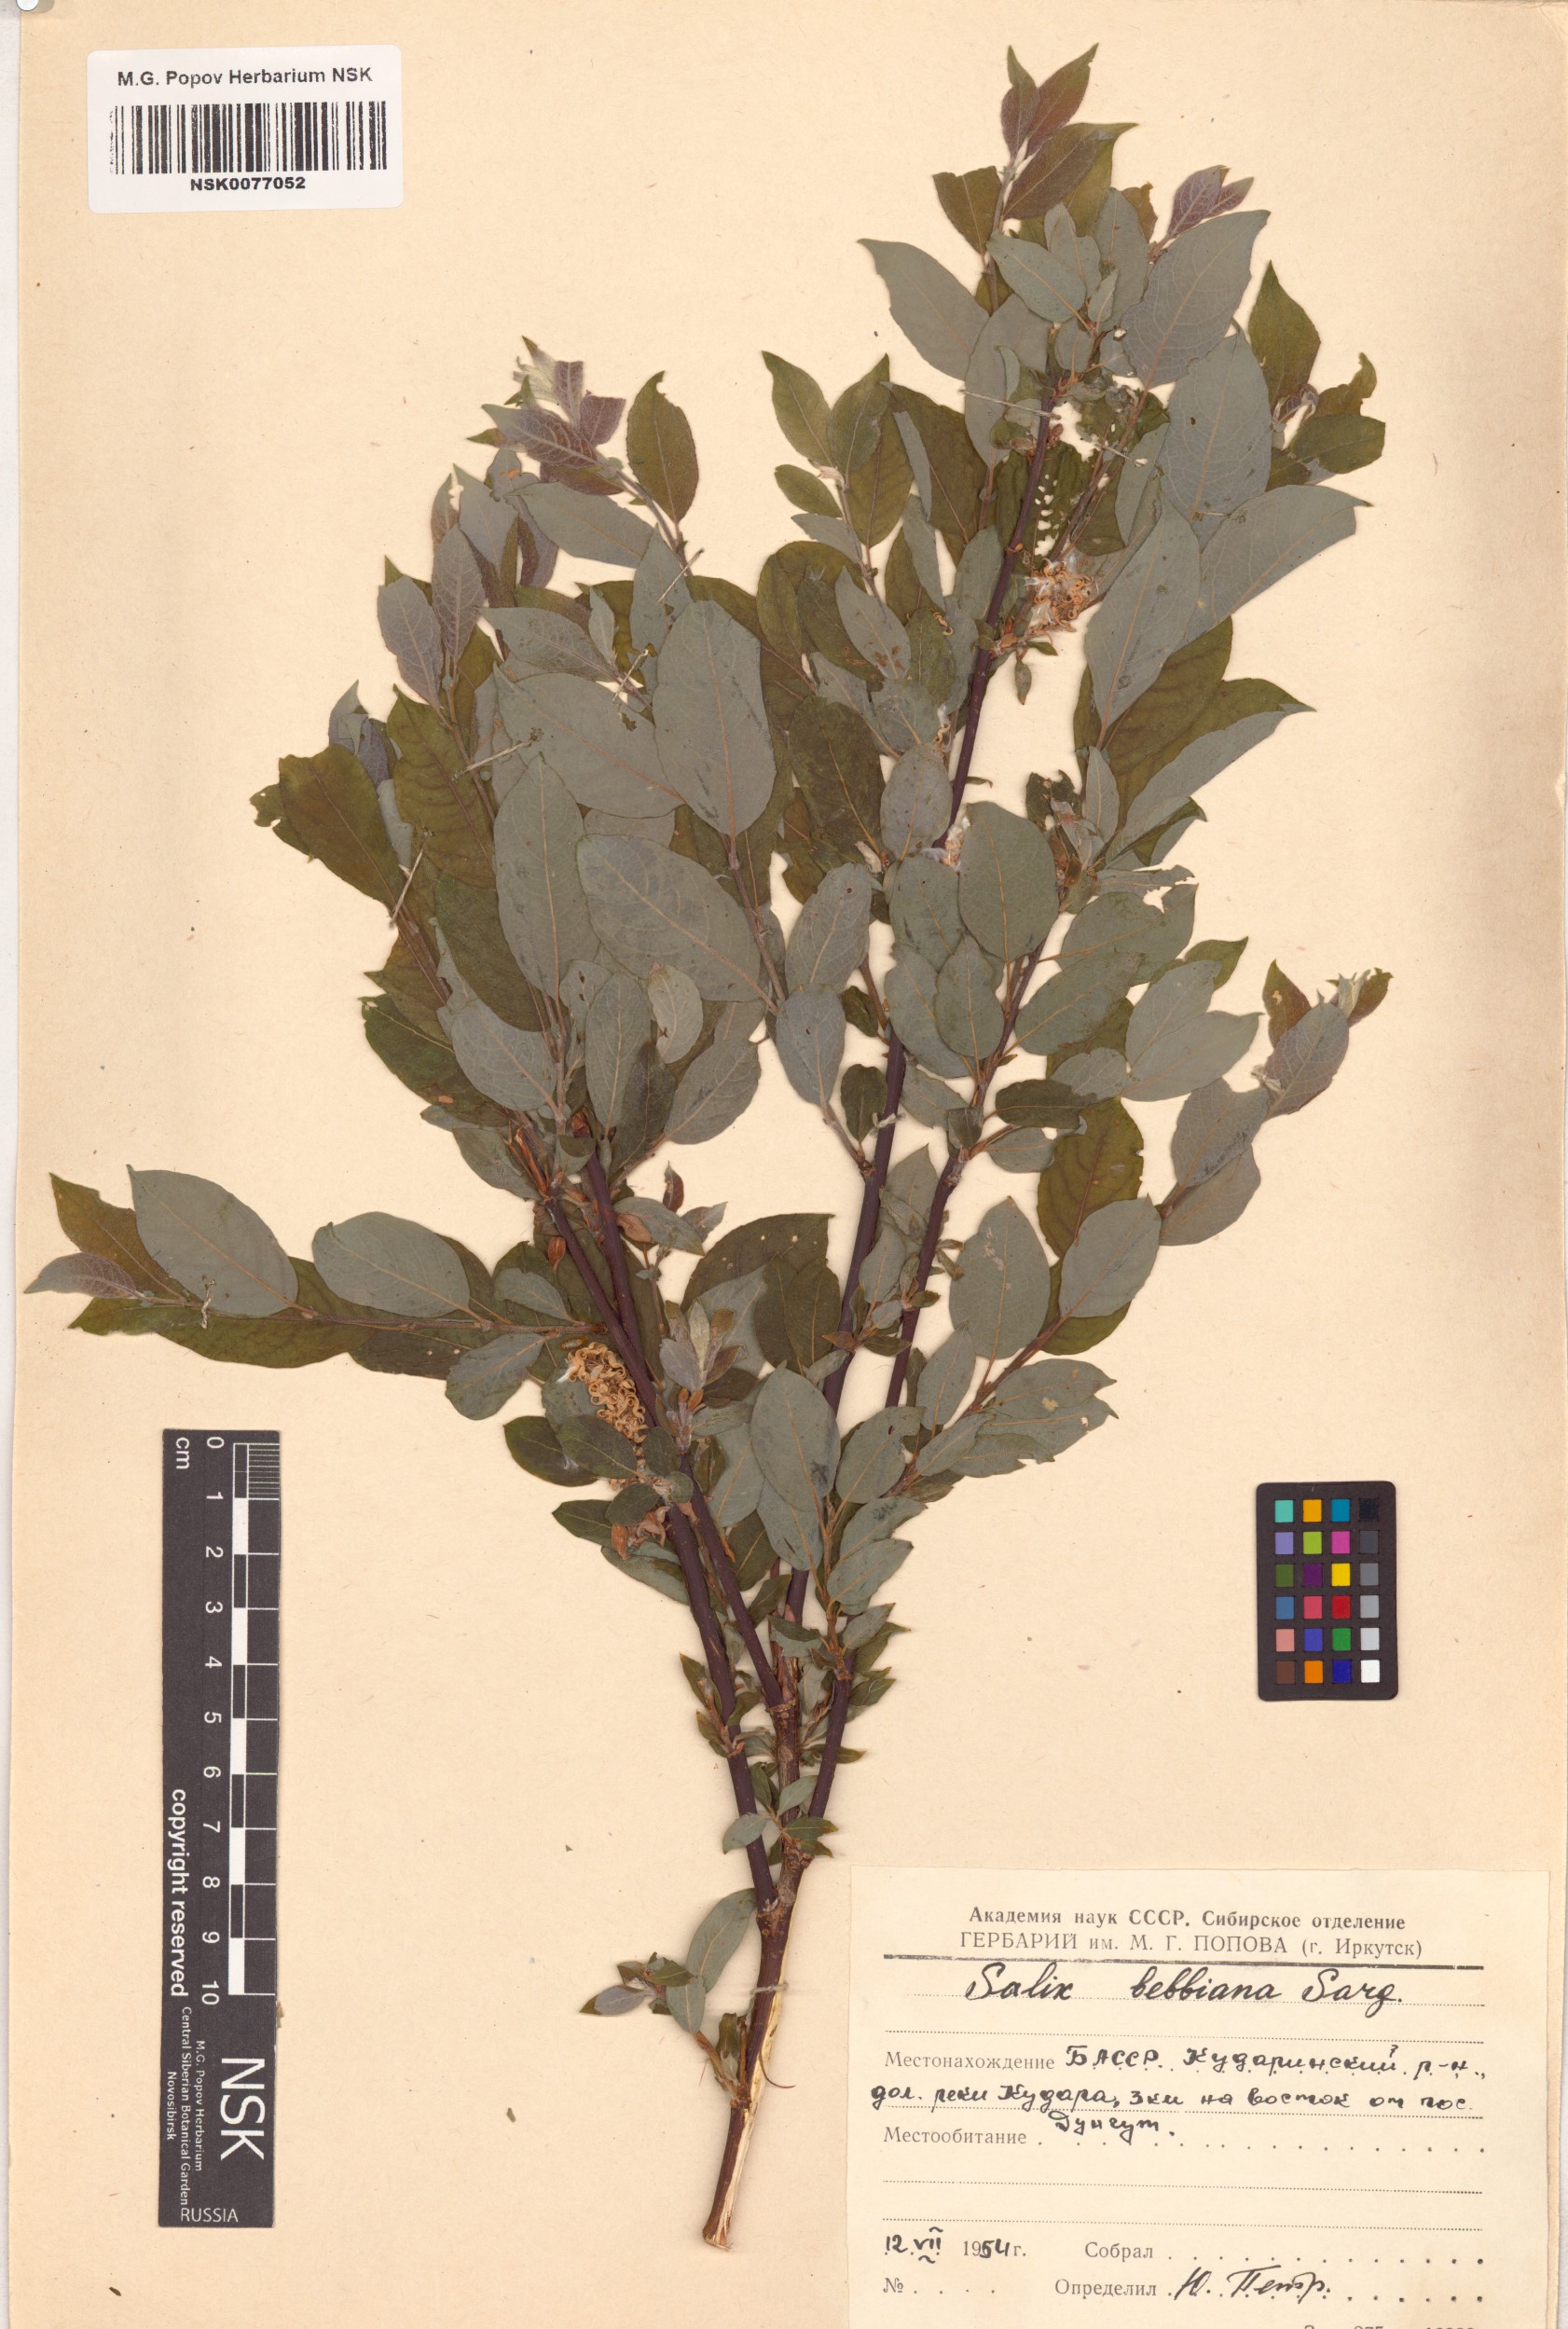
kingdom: Plantae
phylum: Tracheophyta
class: Magnoliopsida
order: Malpighiales
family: Salicaceae
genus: Salix
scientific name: Salix bebbiana
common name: Bebb's willow
